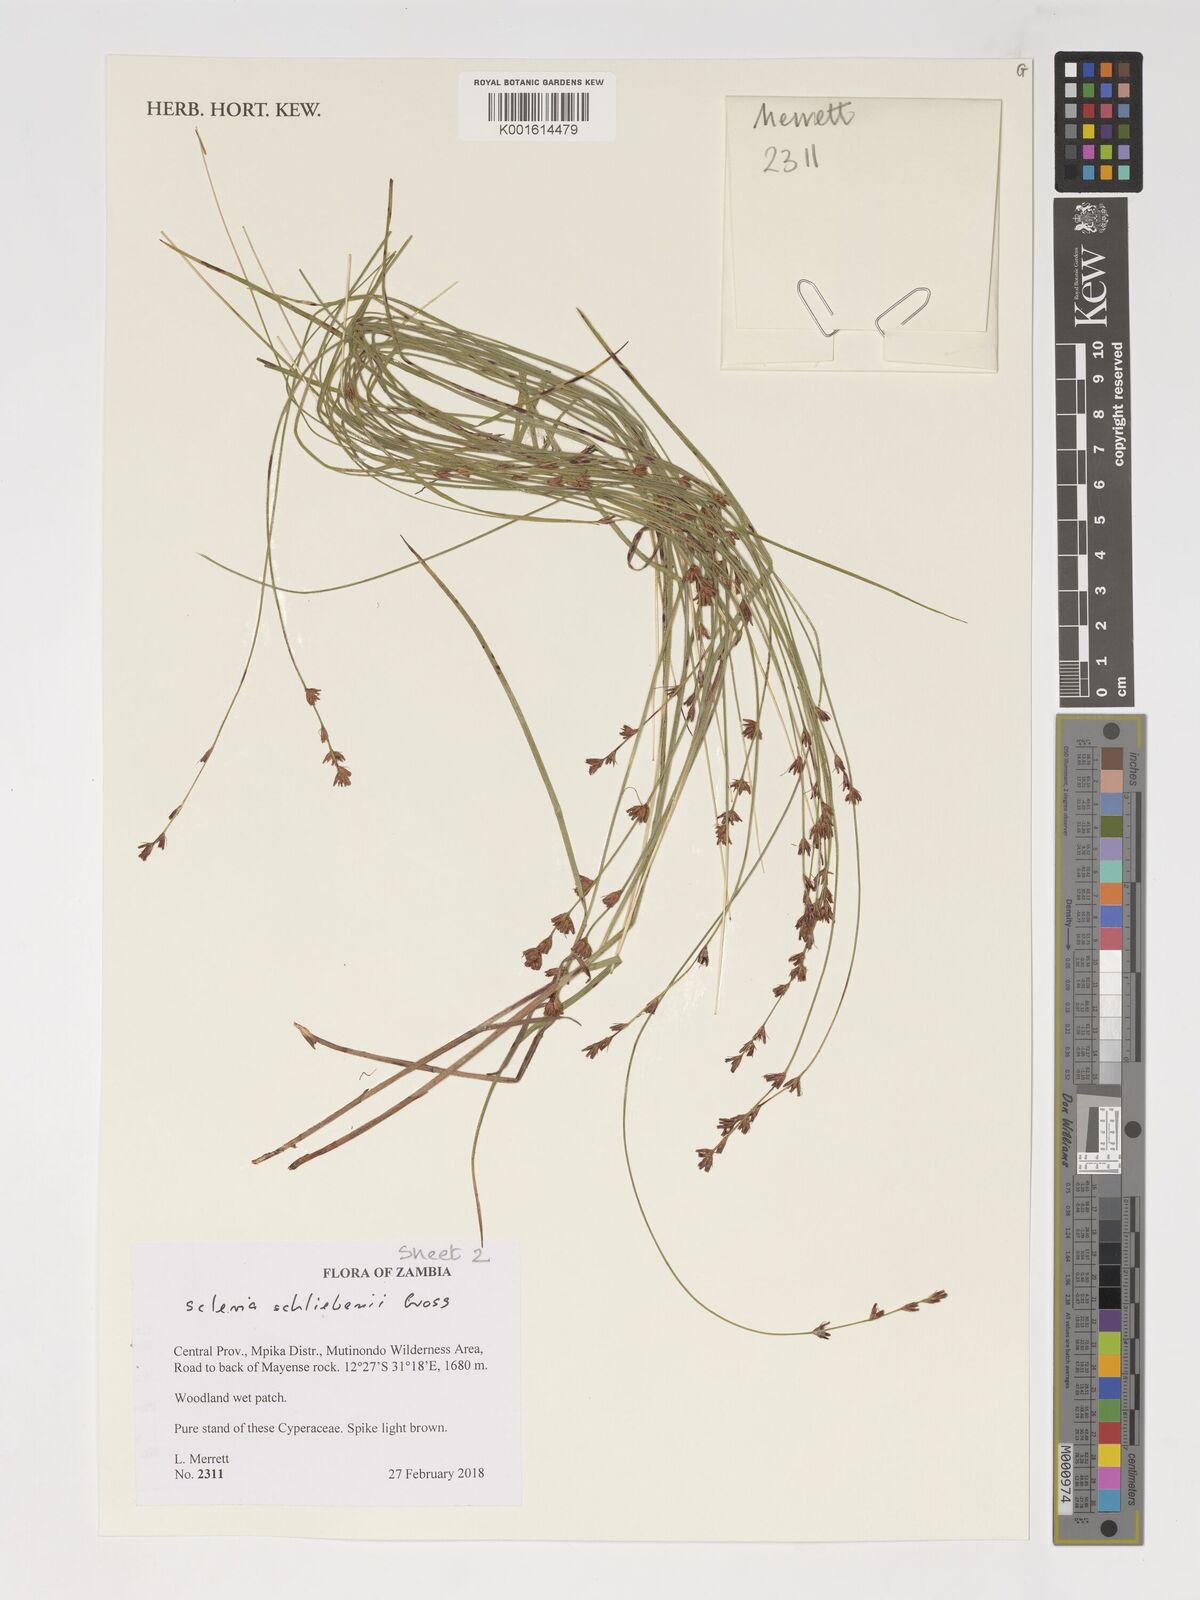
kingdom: Plantae
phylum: Tracheophyta
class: Liliopsida
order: Poales
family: Cyperaceae
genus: Scleria
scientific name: Scleria bulbifera
